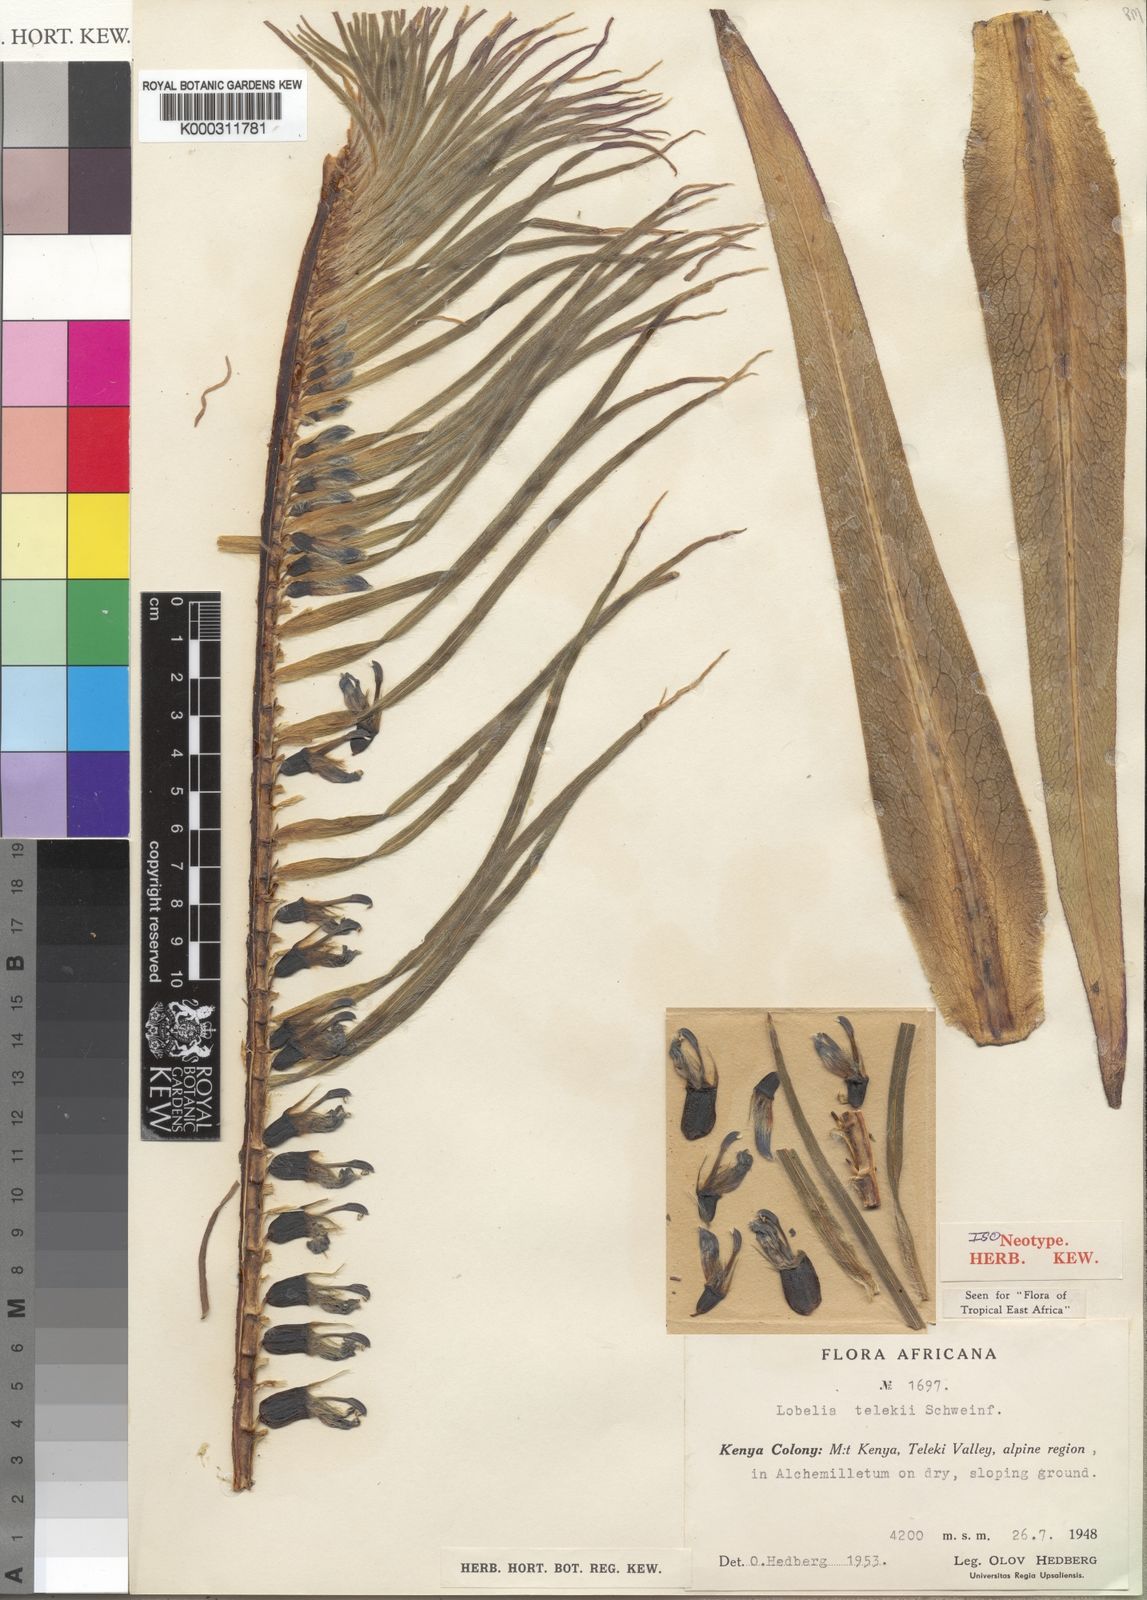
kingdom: Plantae
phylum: Tracheophyta
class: Magnoliopsida
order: Asterales
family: Campanulaceae
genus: Lobelia
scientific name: Lobelia telekii
